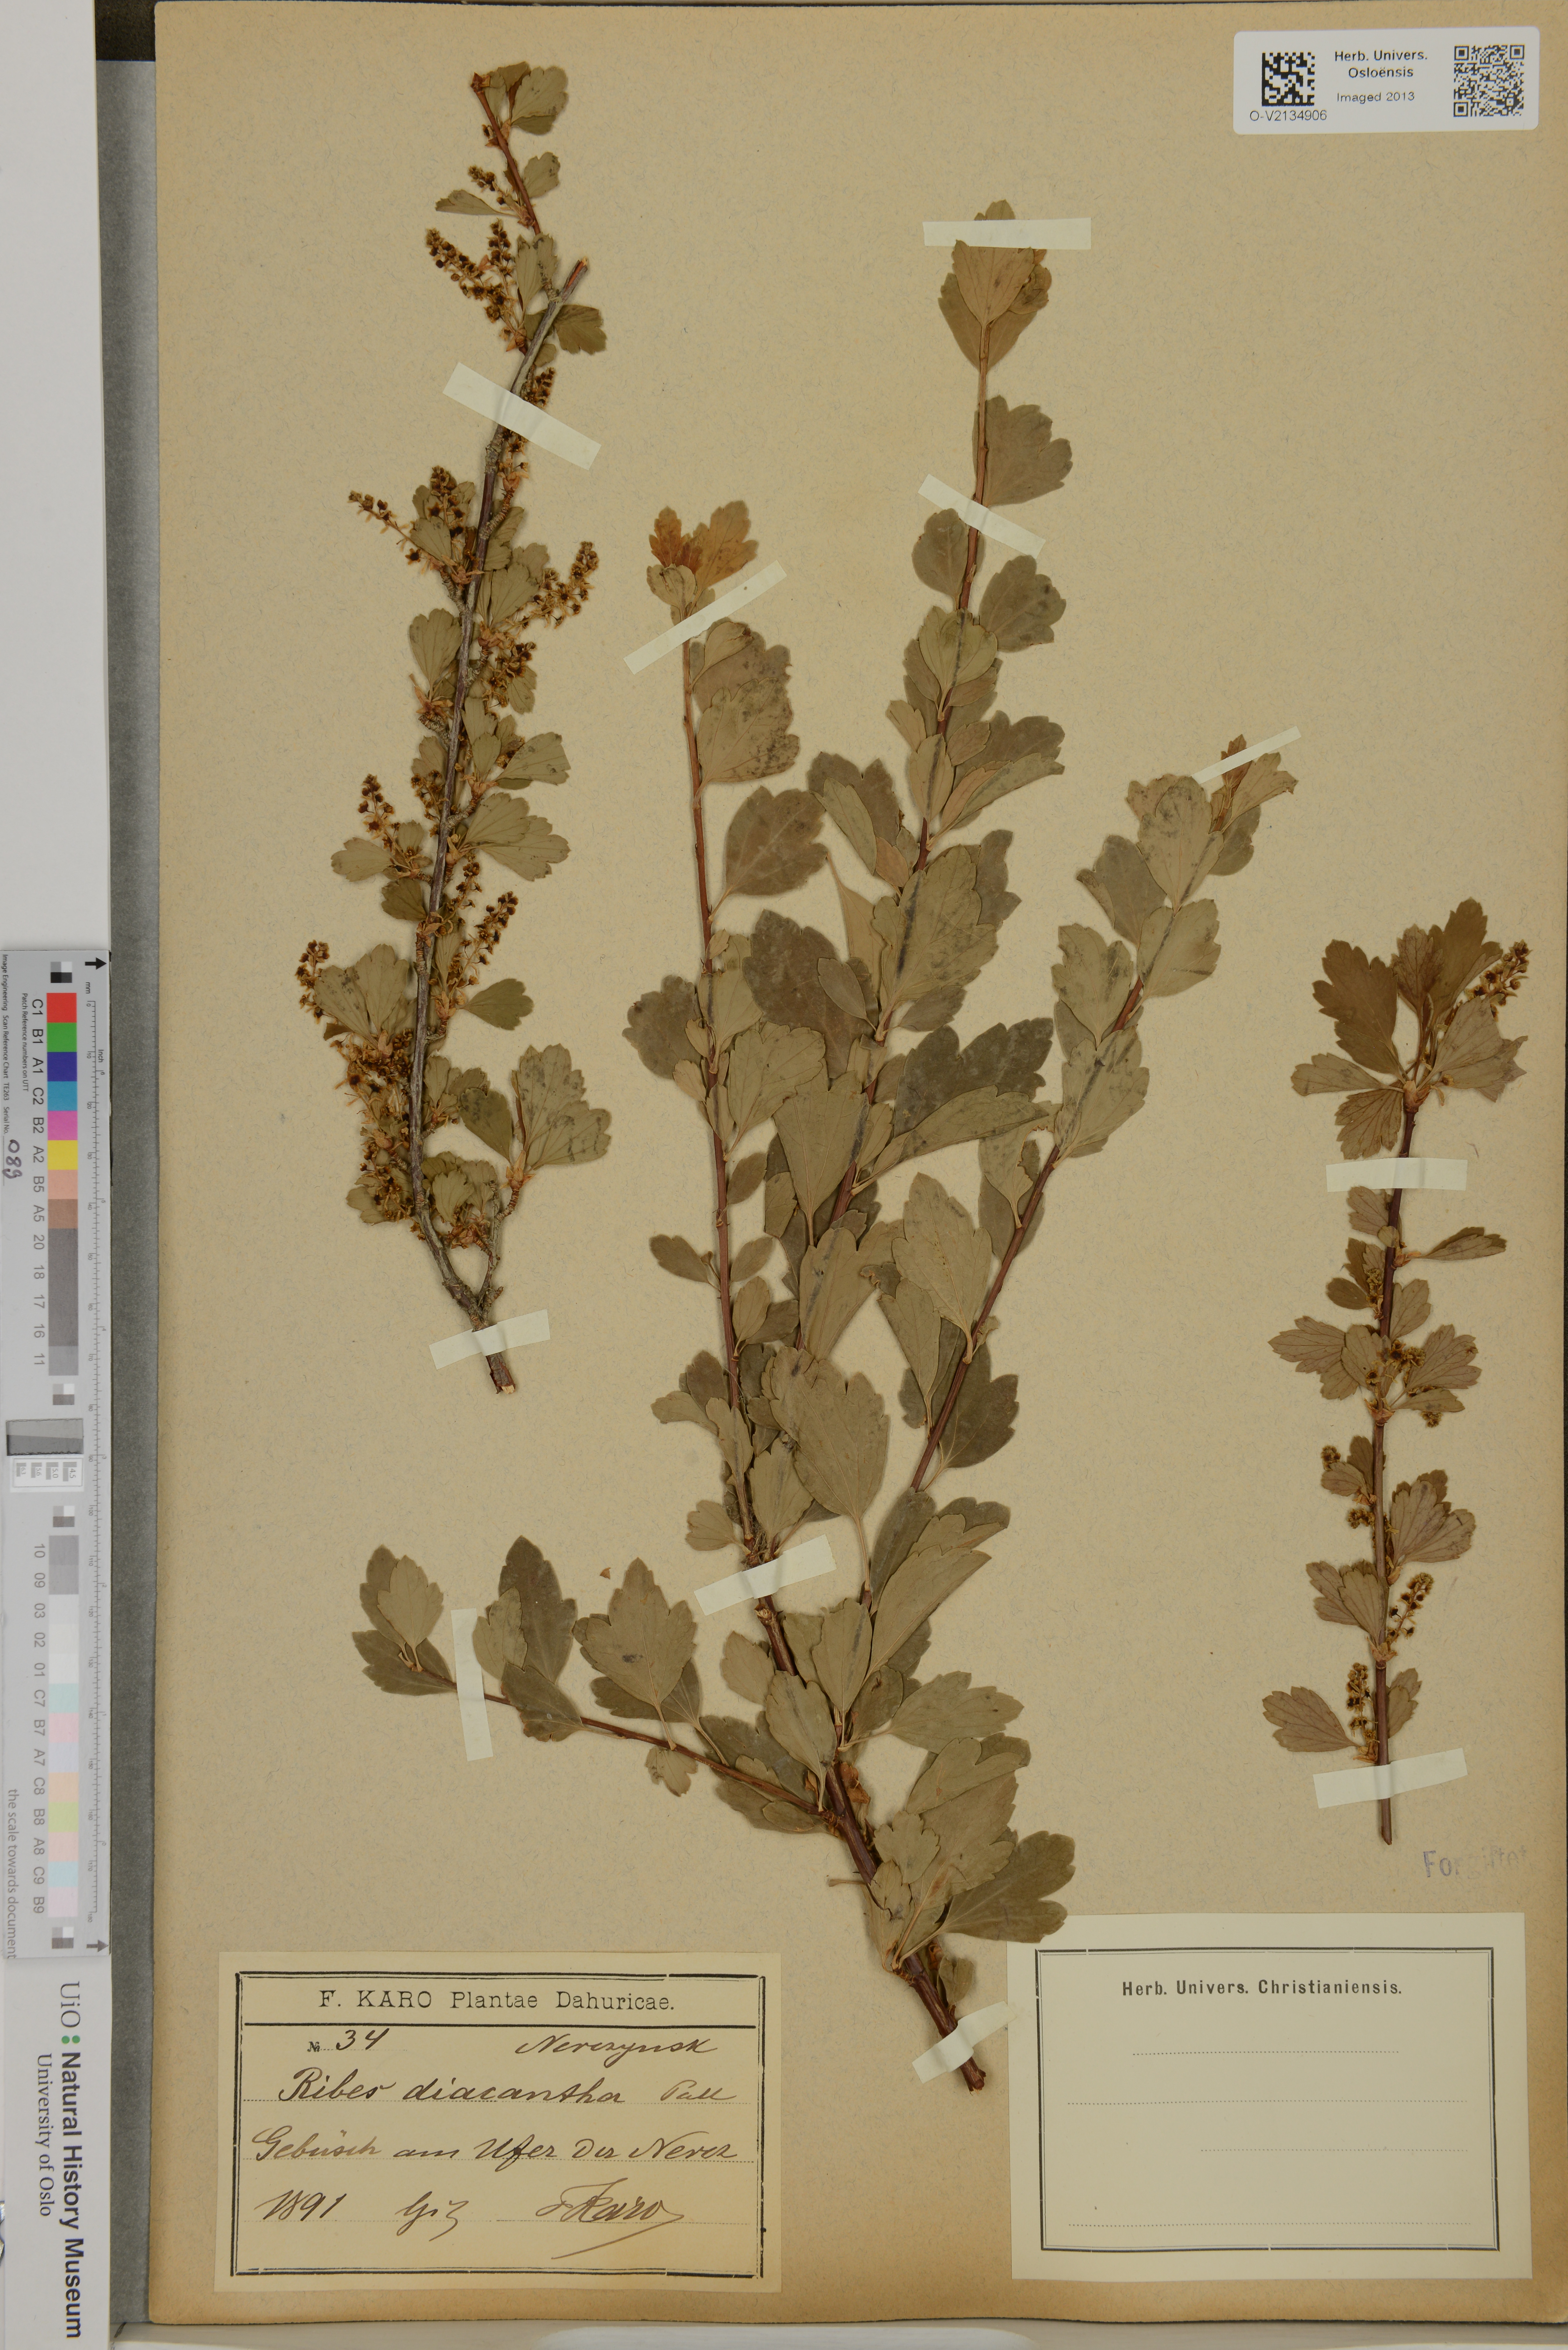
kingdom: Plantae
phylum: Tracheophyta
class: Magnoliopsida
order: Saxifragales
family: Grossulariaceae
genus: Ribes
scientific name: Ribes diacanthum
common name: Siberian currant
